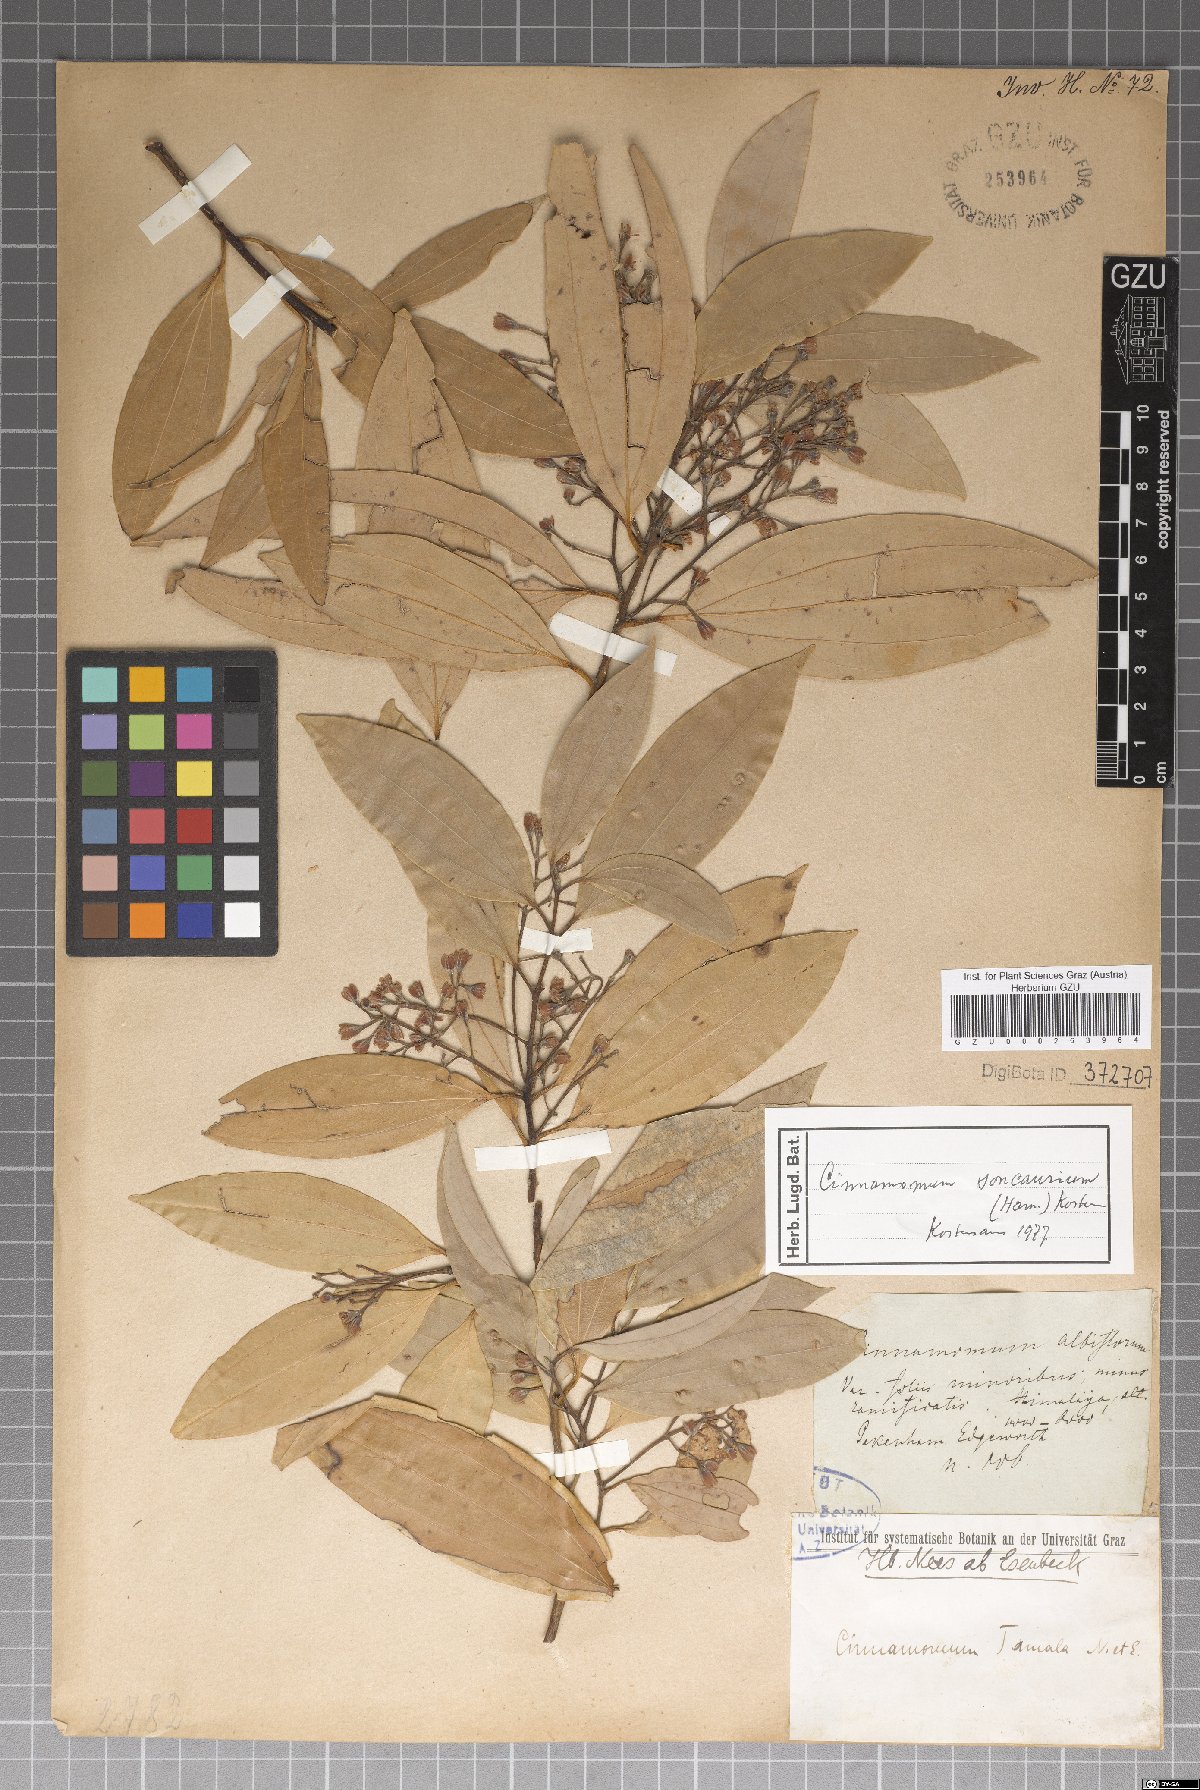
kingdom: Plantae
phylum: Tracheophyta
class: Magnoliopsida
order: Laurales
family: Lauraceae
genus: Cinnamomum
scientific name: Cinnamomum bejolghota
